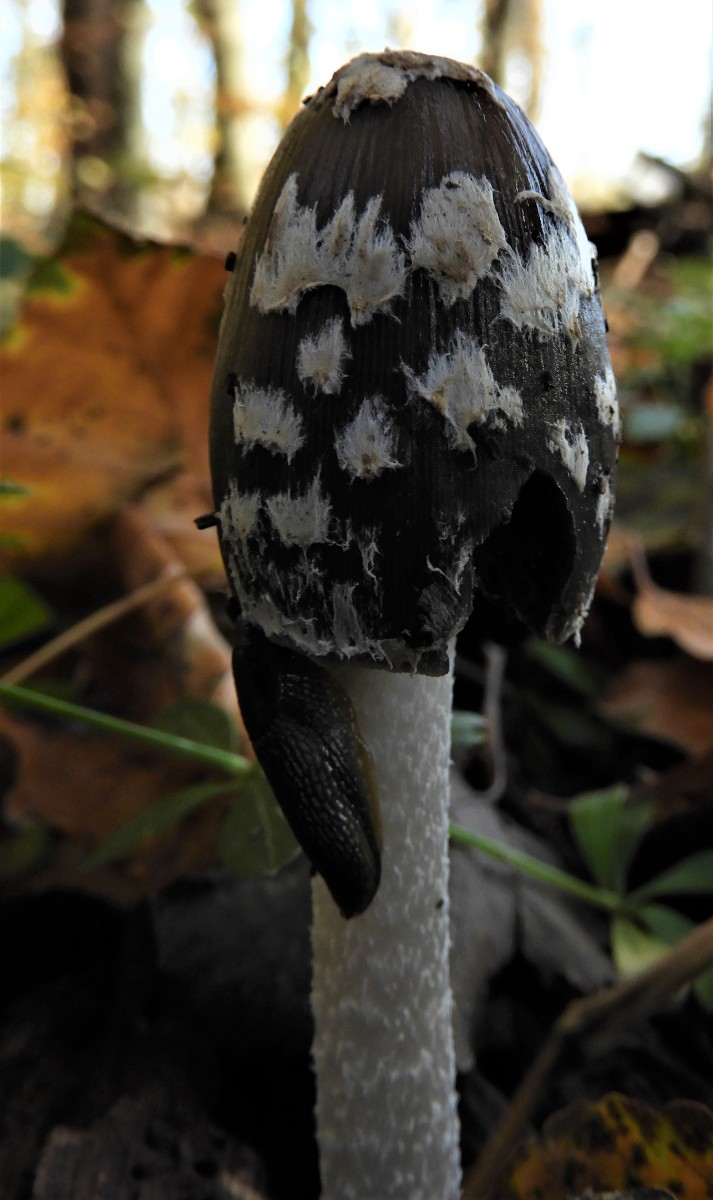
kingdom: Fungi
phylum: Basidiomycota
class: Agaricomycetes
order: Agaricales
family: Psathyrellaceae
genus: Coprinopsis
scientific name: Coprinopsis picacea
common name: skade-blækhat
